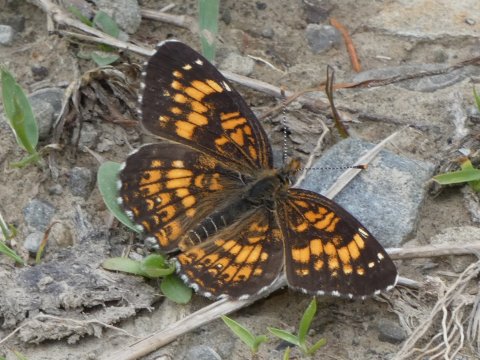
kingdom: Animalia
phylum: Arthropoda
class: Insecta
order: Lepidoptera
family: Nymphalidae
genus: Chlosyne
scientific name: Chlosyne harrisii
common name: Harris's Checkerspot
